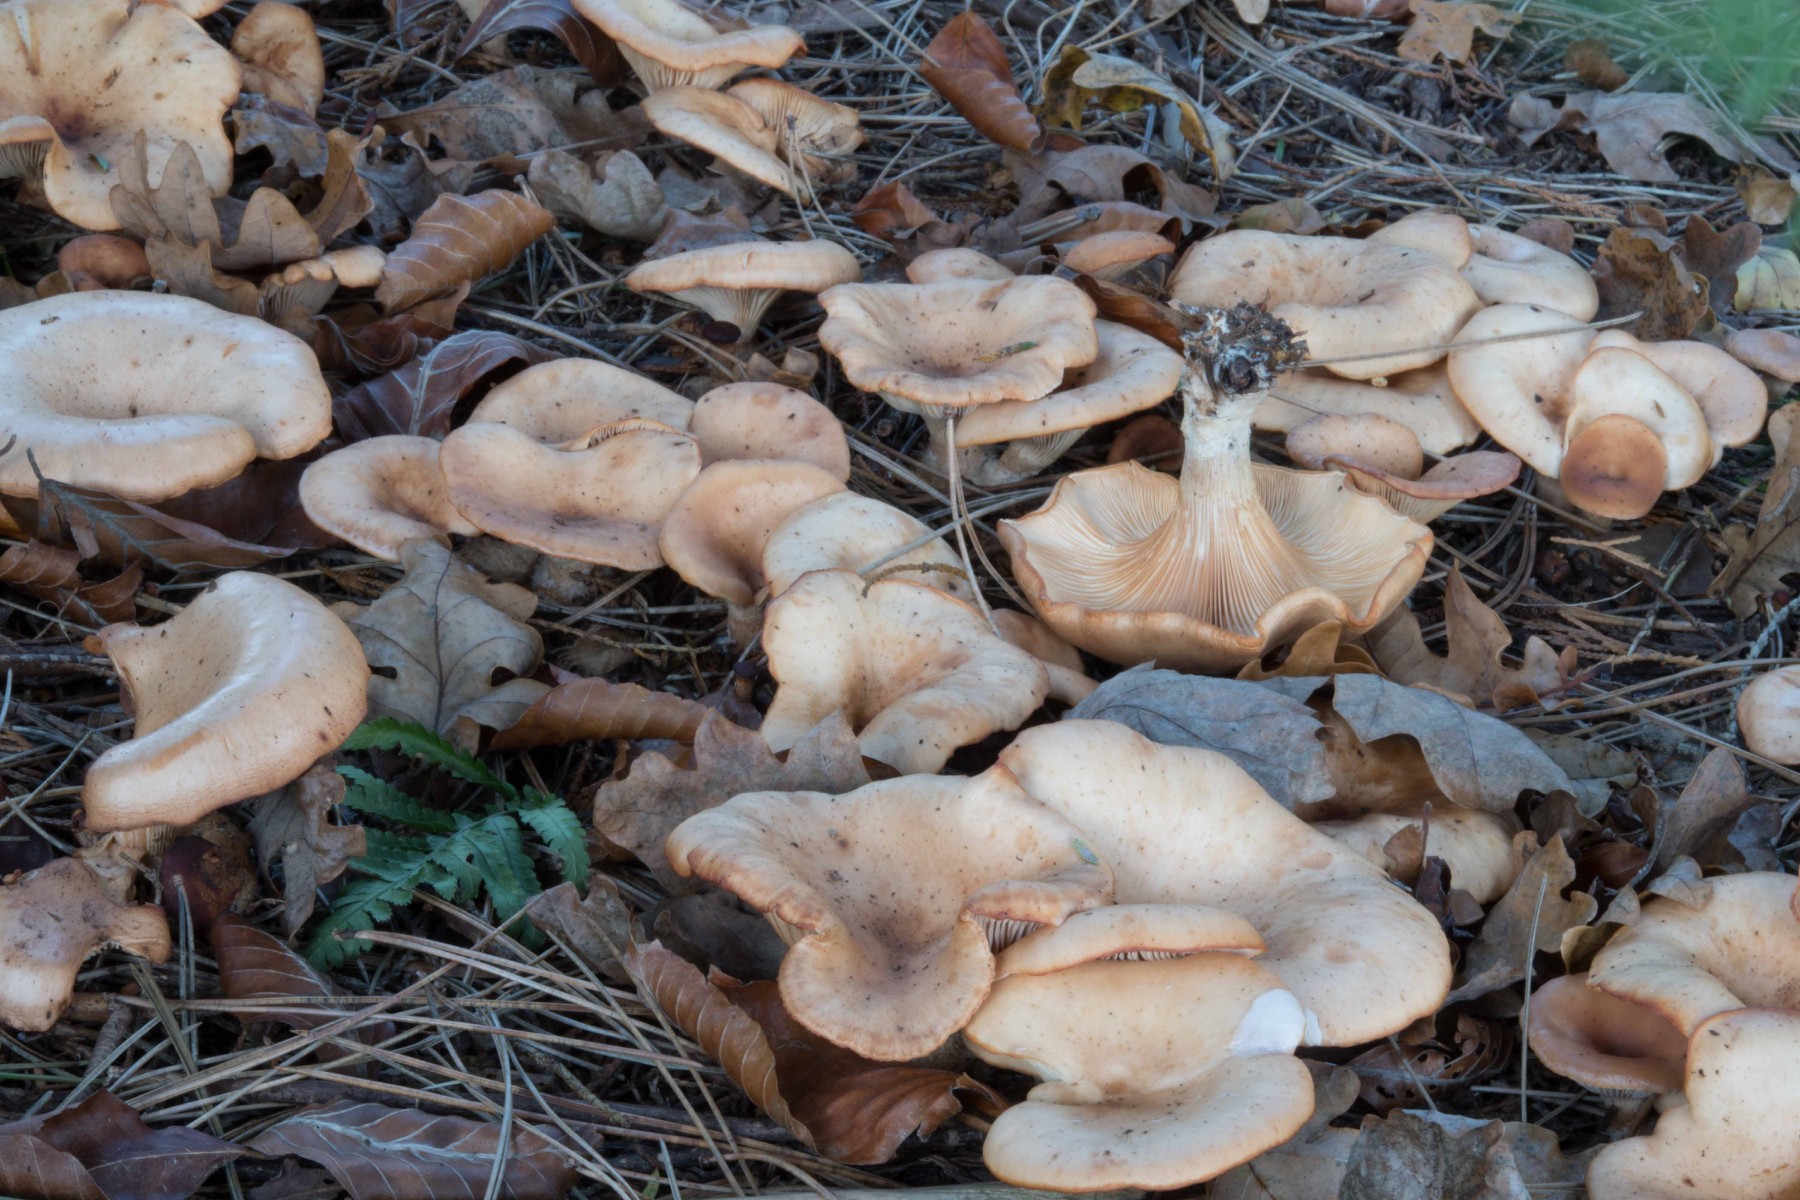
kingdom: Fungi
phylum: Basidiomycota
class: Agaricomycetes
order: Agaricales
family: Tricholomataceae
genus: Paralepista
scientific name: Paralepista flaccida
